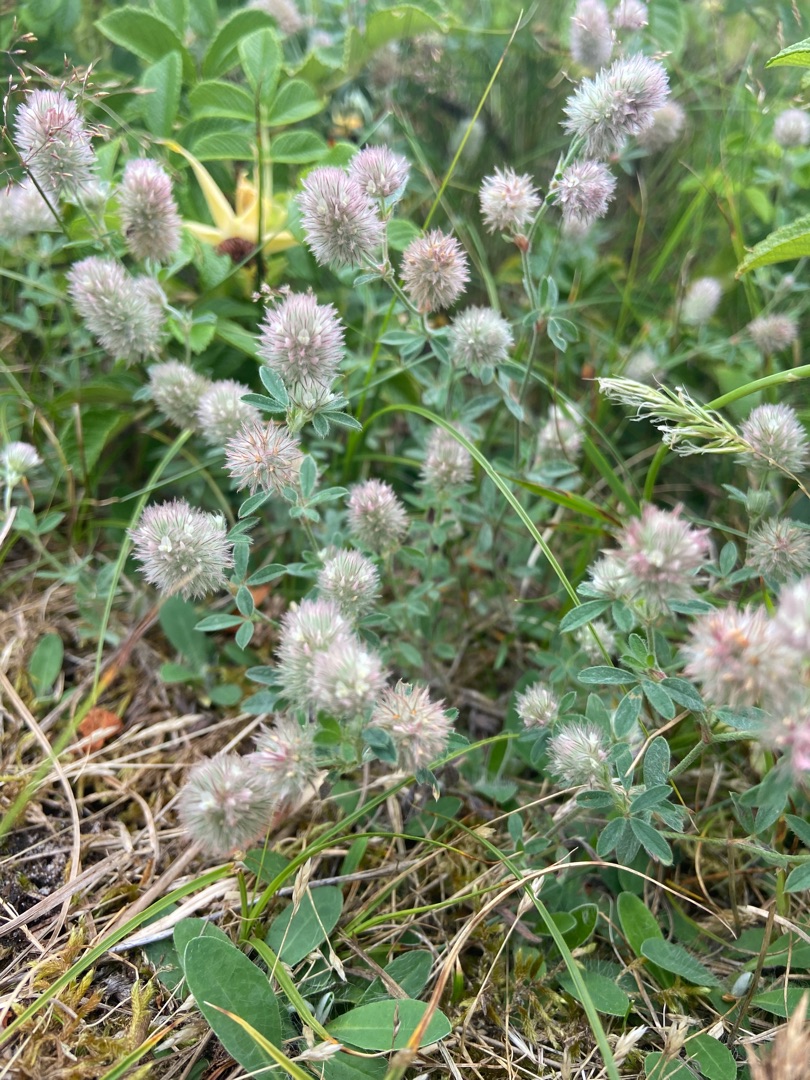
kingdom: Plantae
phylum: Tracheophyta
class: Magnoliopsida
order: Fabales
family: Fabaceae
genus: Trifolium
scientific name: Trifolium arvense
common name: Hare-kløver
